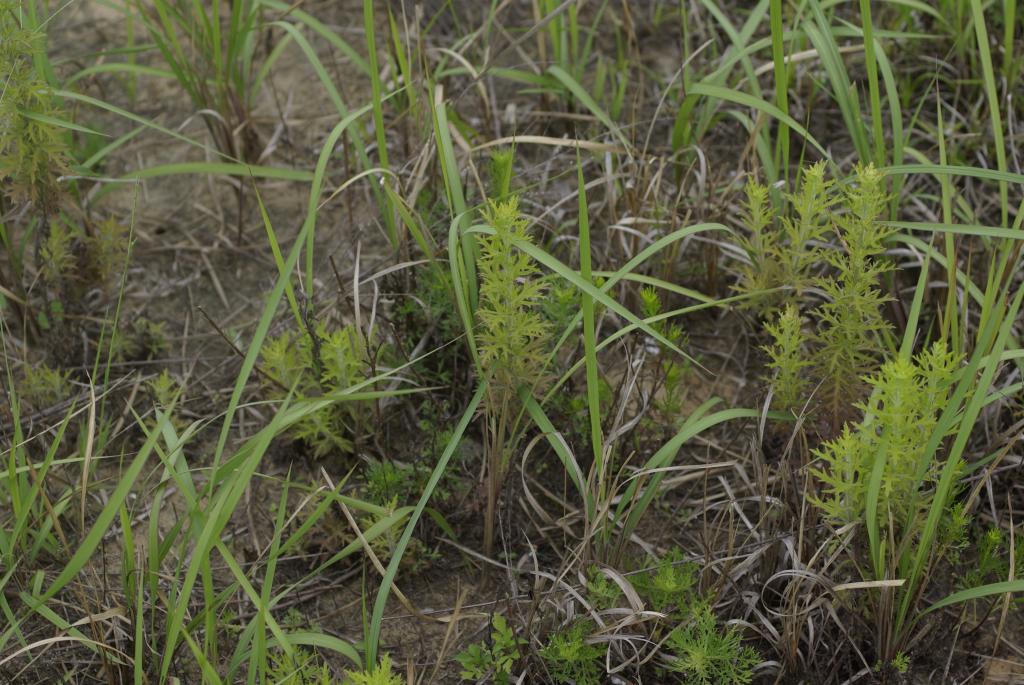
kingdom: Plantae
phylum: Tracheophyta
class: Magnoliopsida
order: Lamiales
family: Orobanchaceae
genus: Siphonostegia
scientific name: Siphonostegia chinensis
